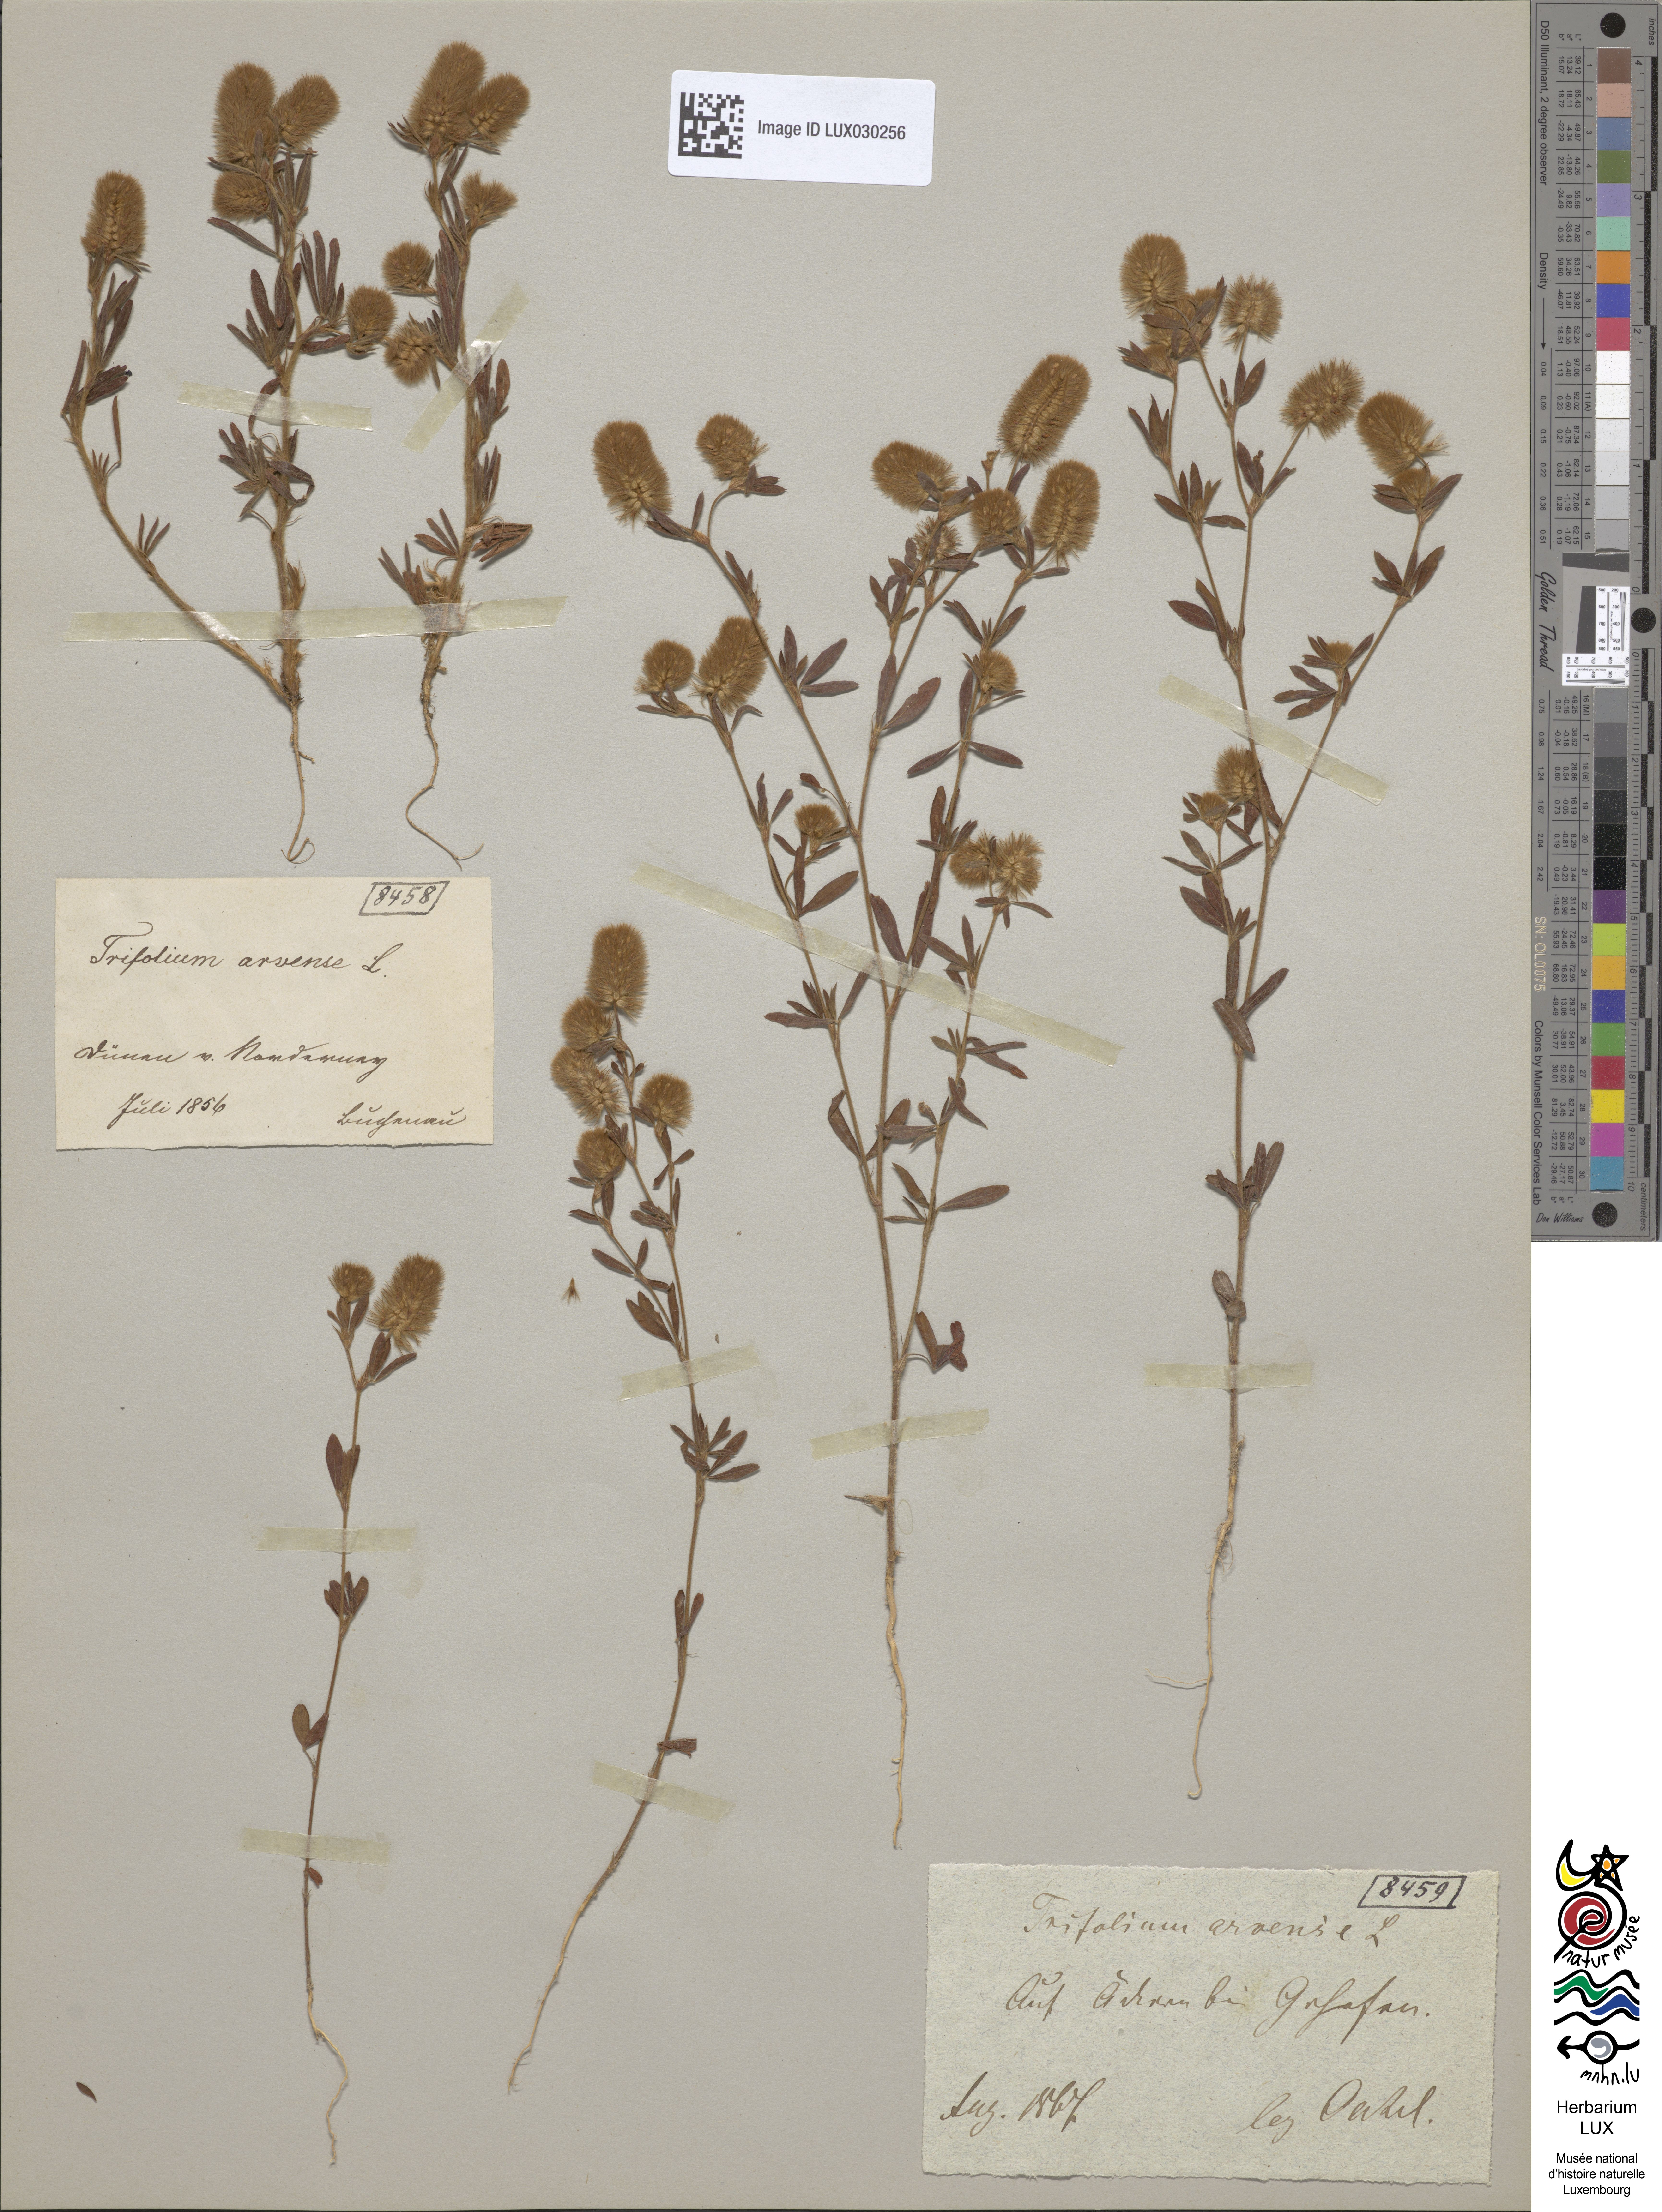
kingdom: Plantae
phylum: Tracheophyta
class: Magnoliopsida
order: Fabales
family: Fabaceae
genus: Trifolium
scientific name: Trifolium arvense
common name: Hare's-foot clover
